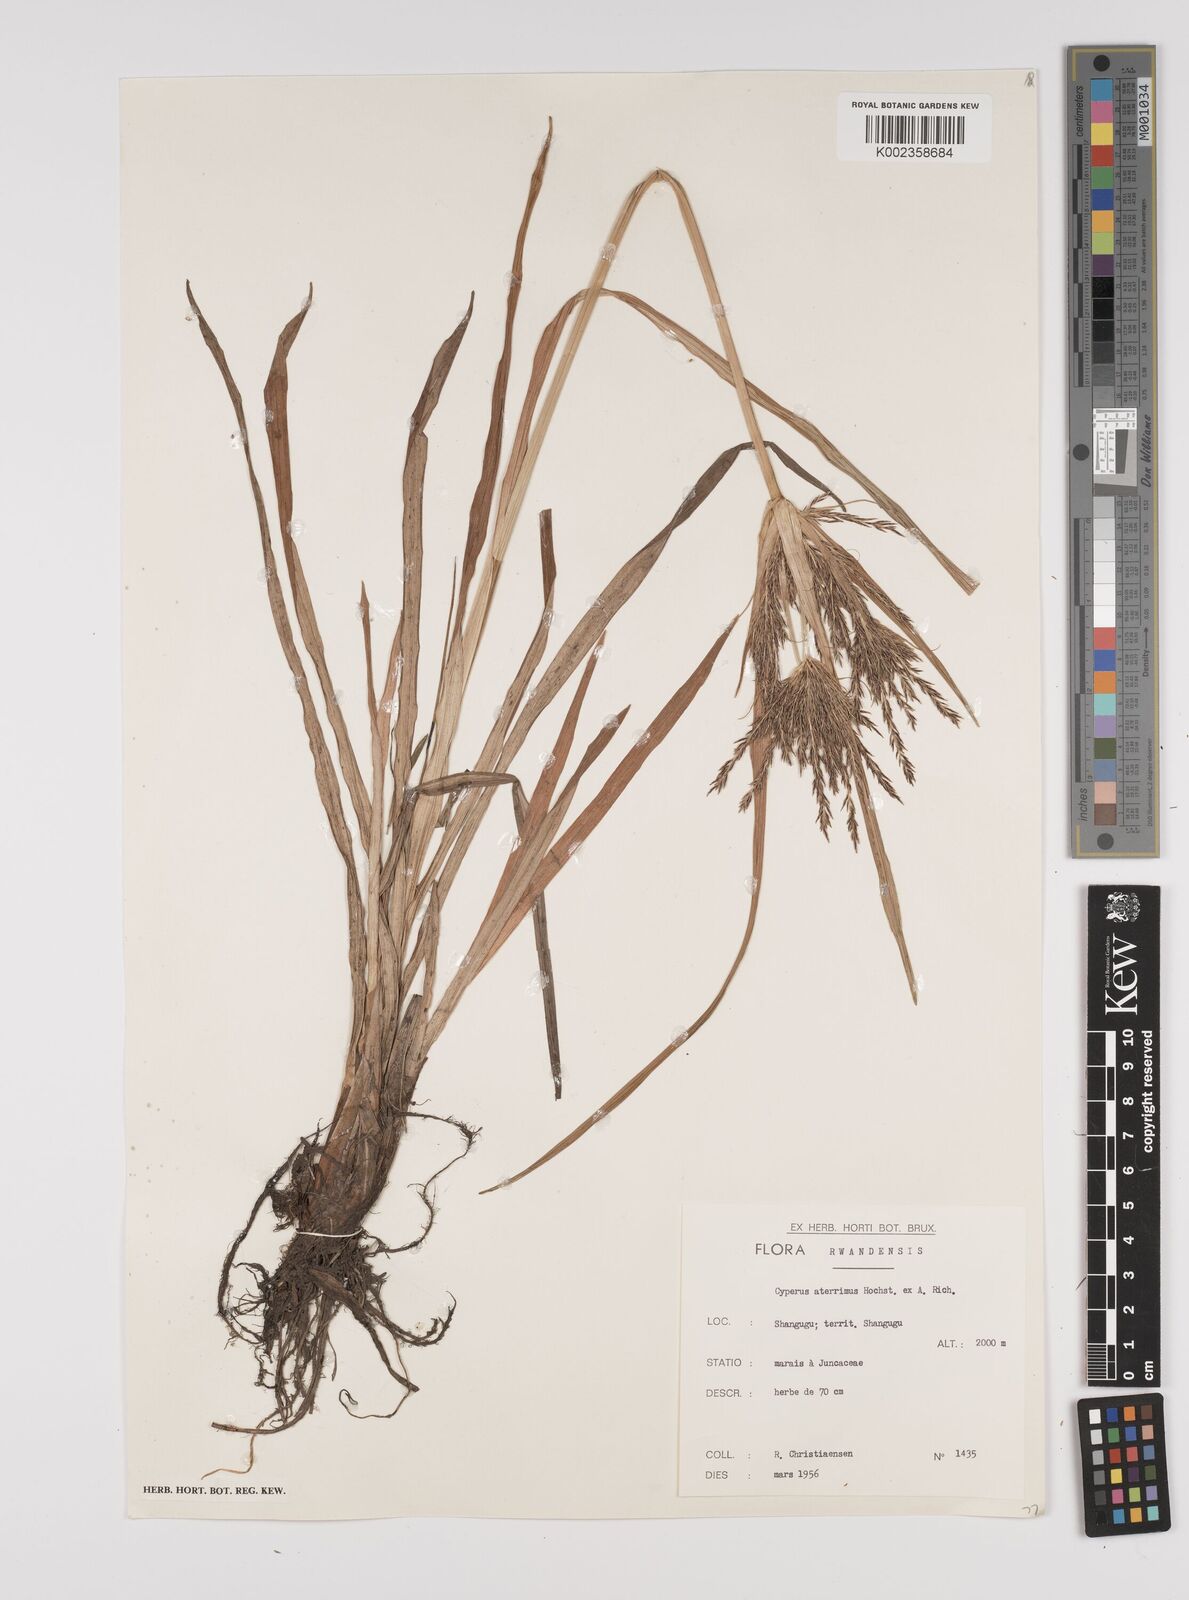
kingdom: Plantae
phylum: Tracheophyta
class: Liliopsida
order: Poales
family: Cyperaceae
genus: Cyperus
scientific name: Cyperus aterrimus
